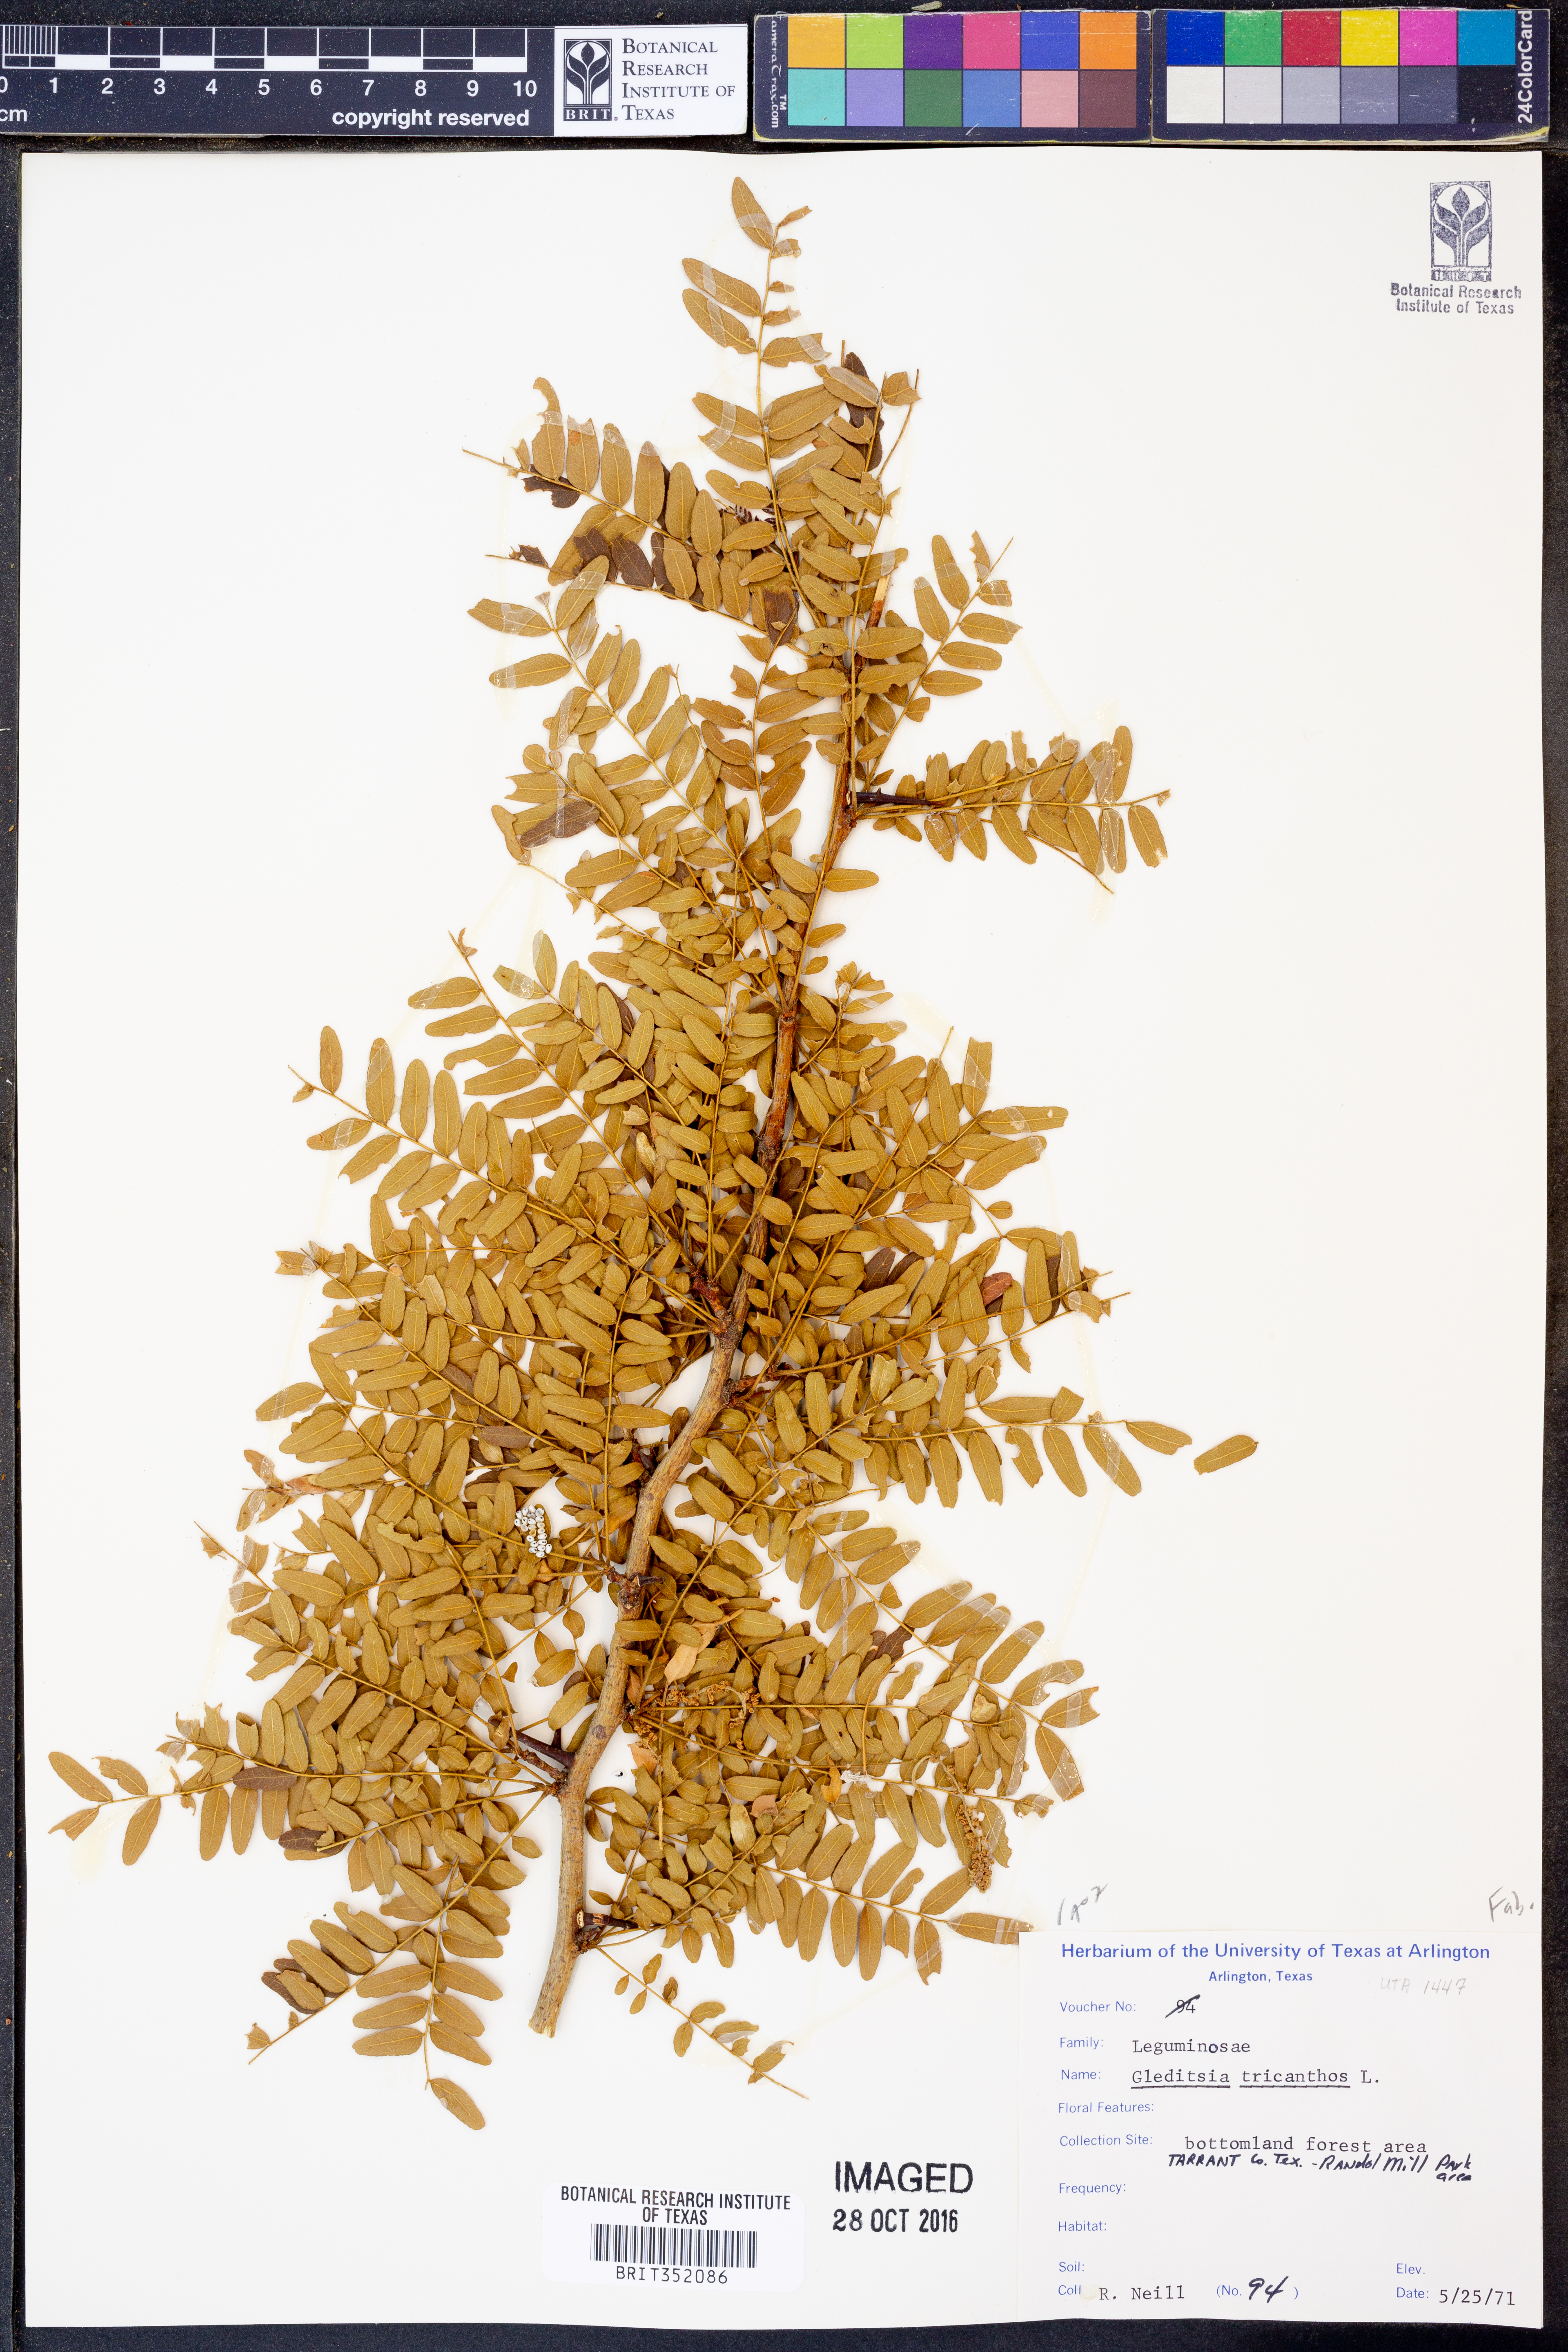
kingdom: Plantae
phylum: Tracheophyta
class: Magnoliopsida
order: Fabales
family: Fabaceae
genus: Gleditsia
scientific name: Gleditsia triacanthos
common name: Common honeylocust
